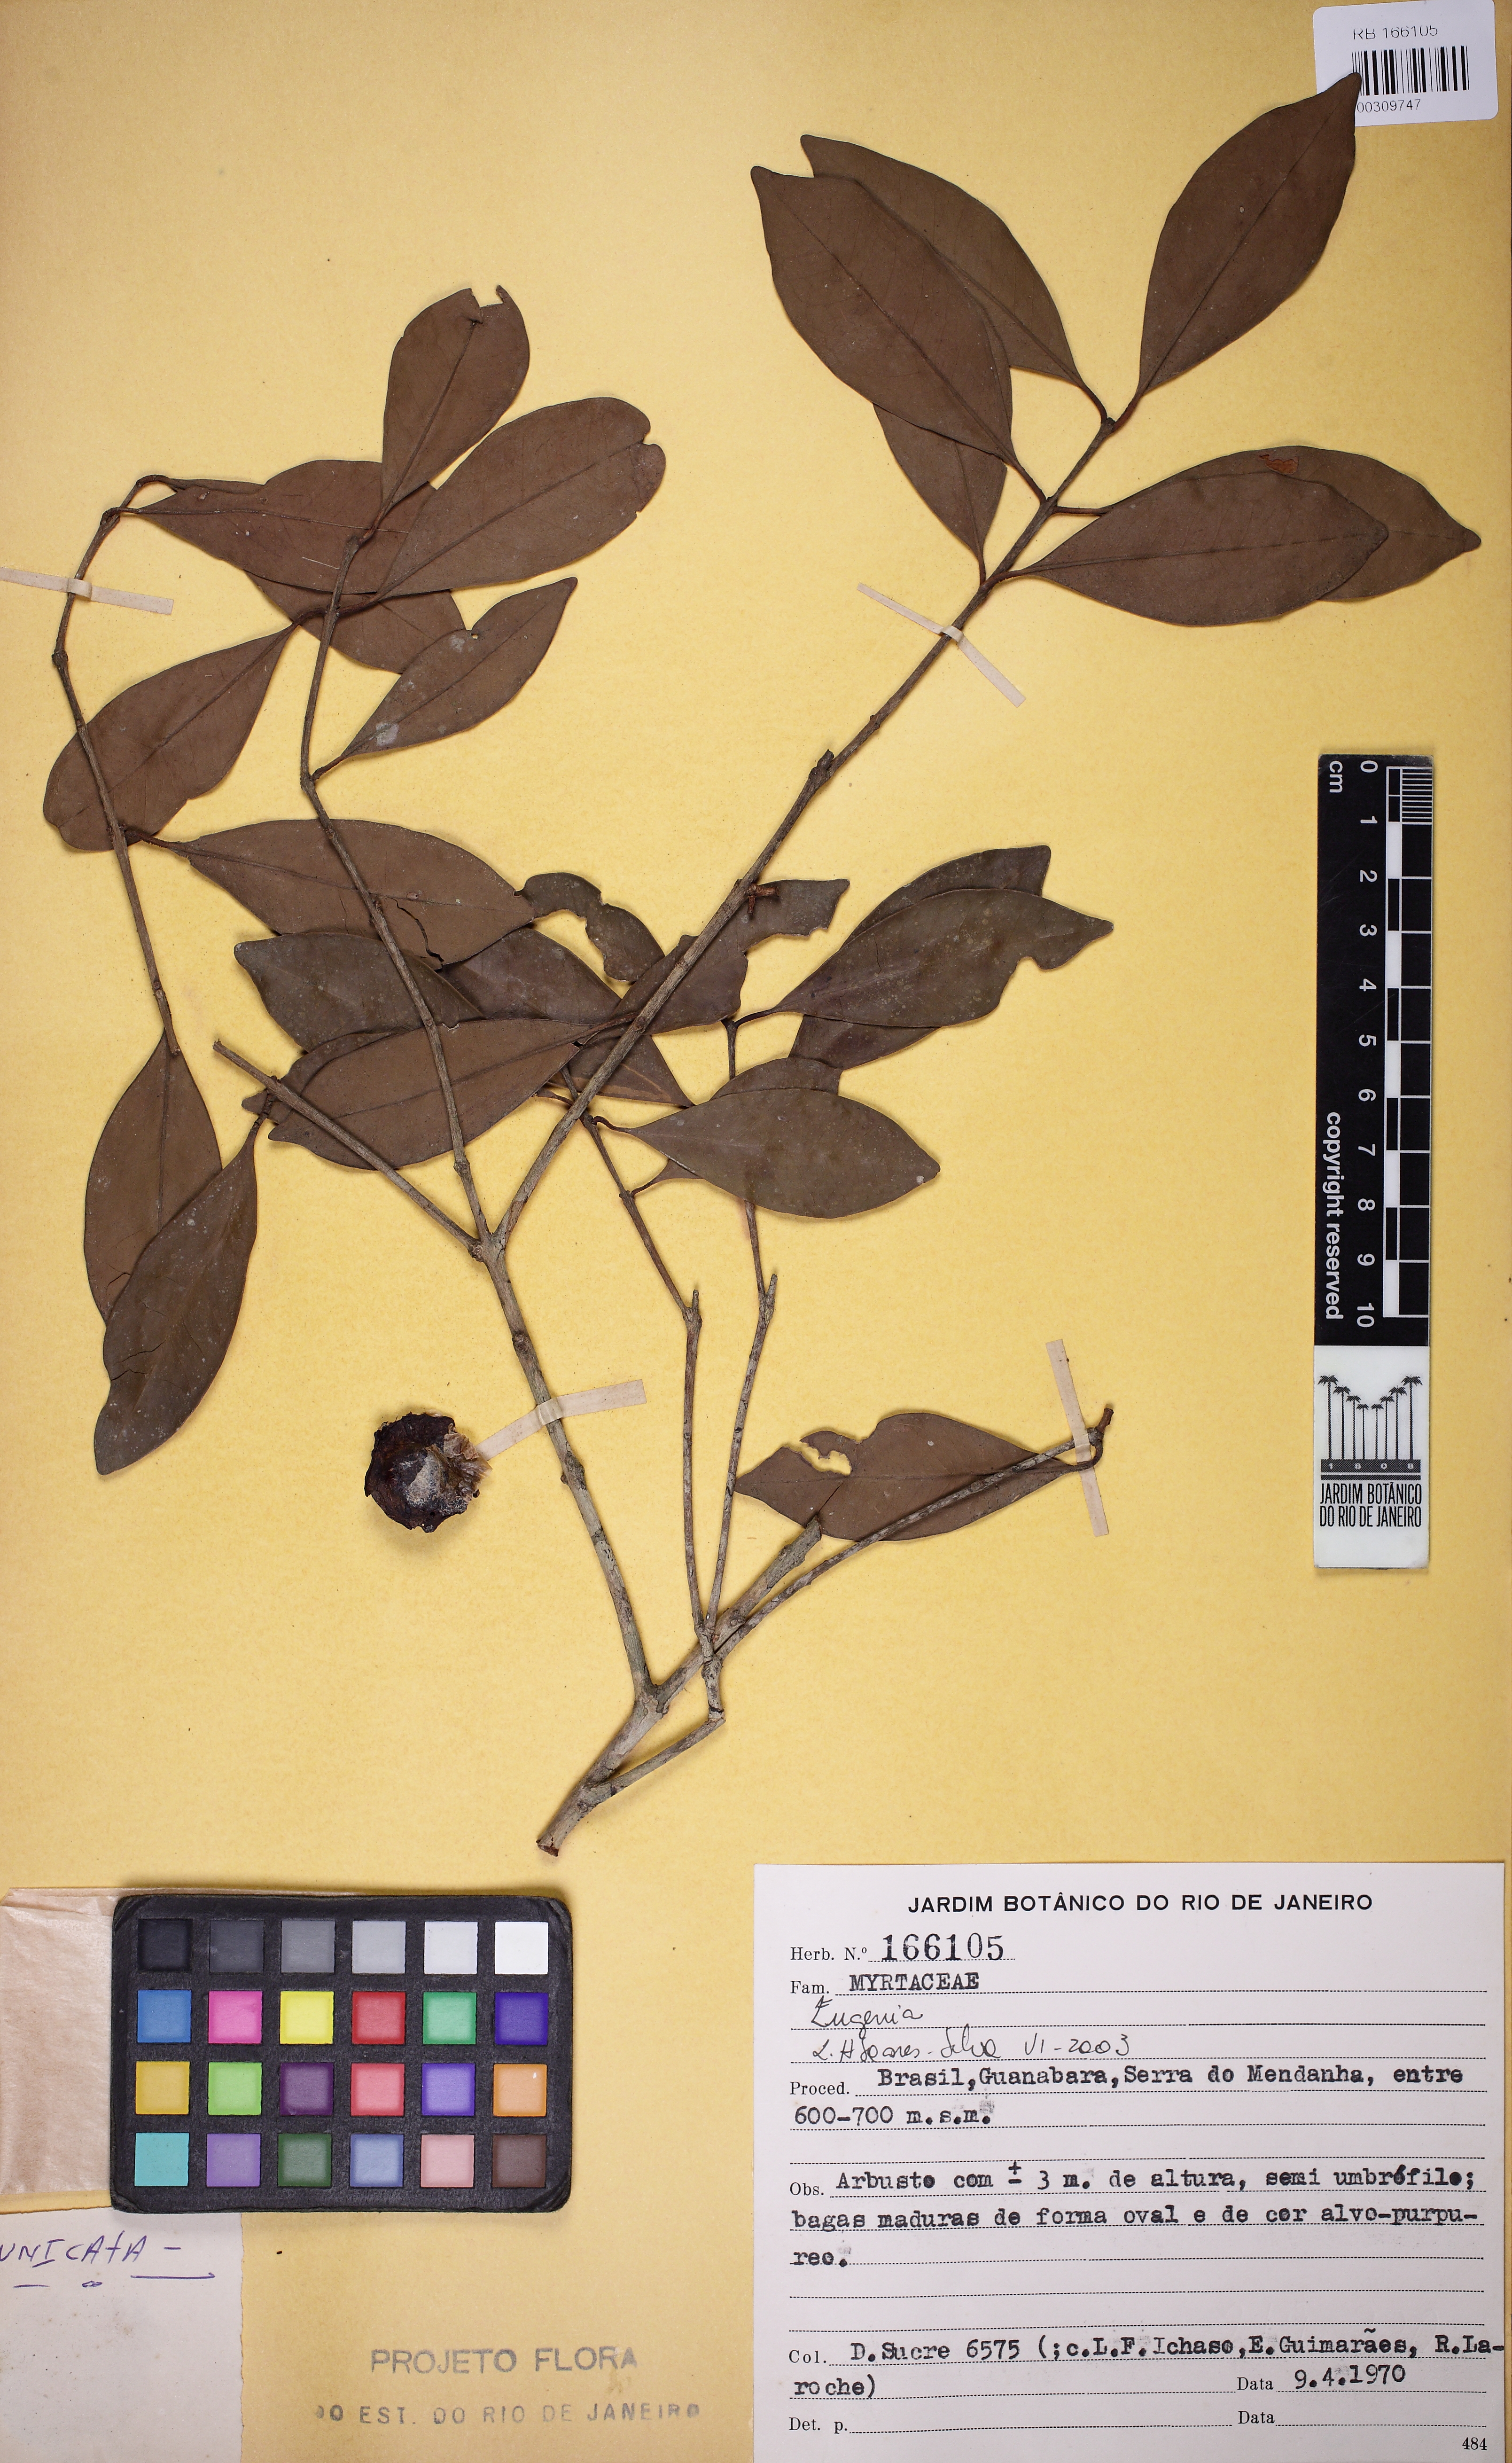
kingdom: Plantae
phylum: Tracheophyta
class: Magnoliopsida
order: Myrtales
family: Myrtaceae
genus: Eugenia
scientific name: Eugenia
